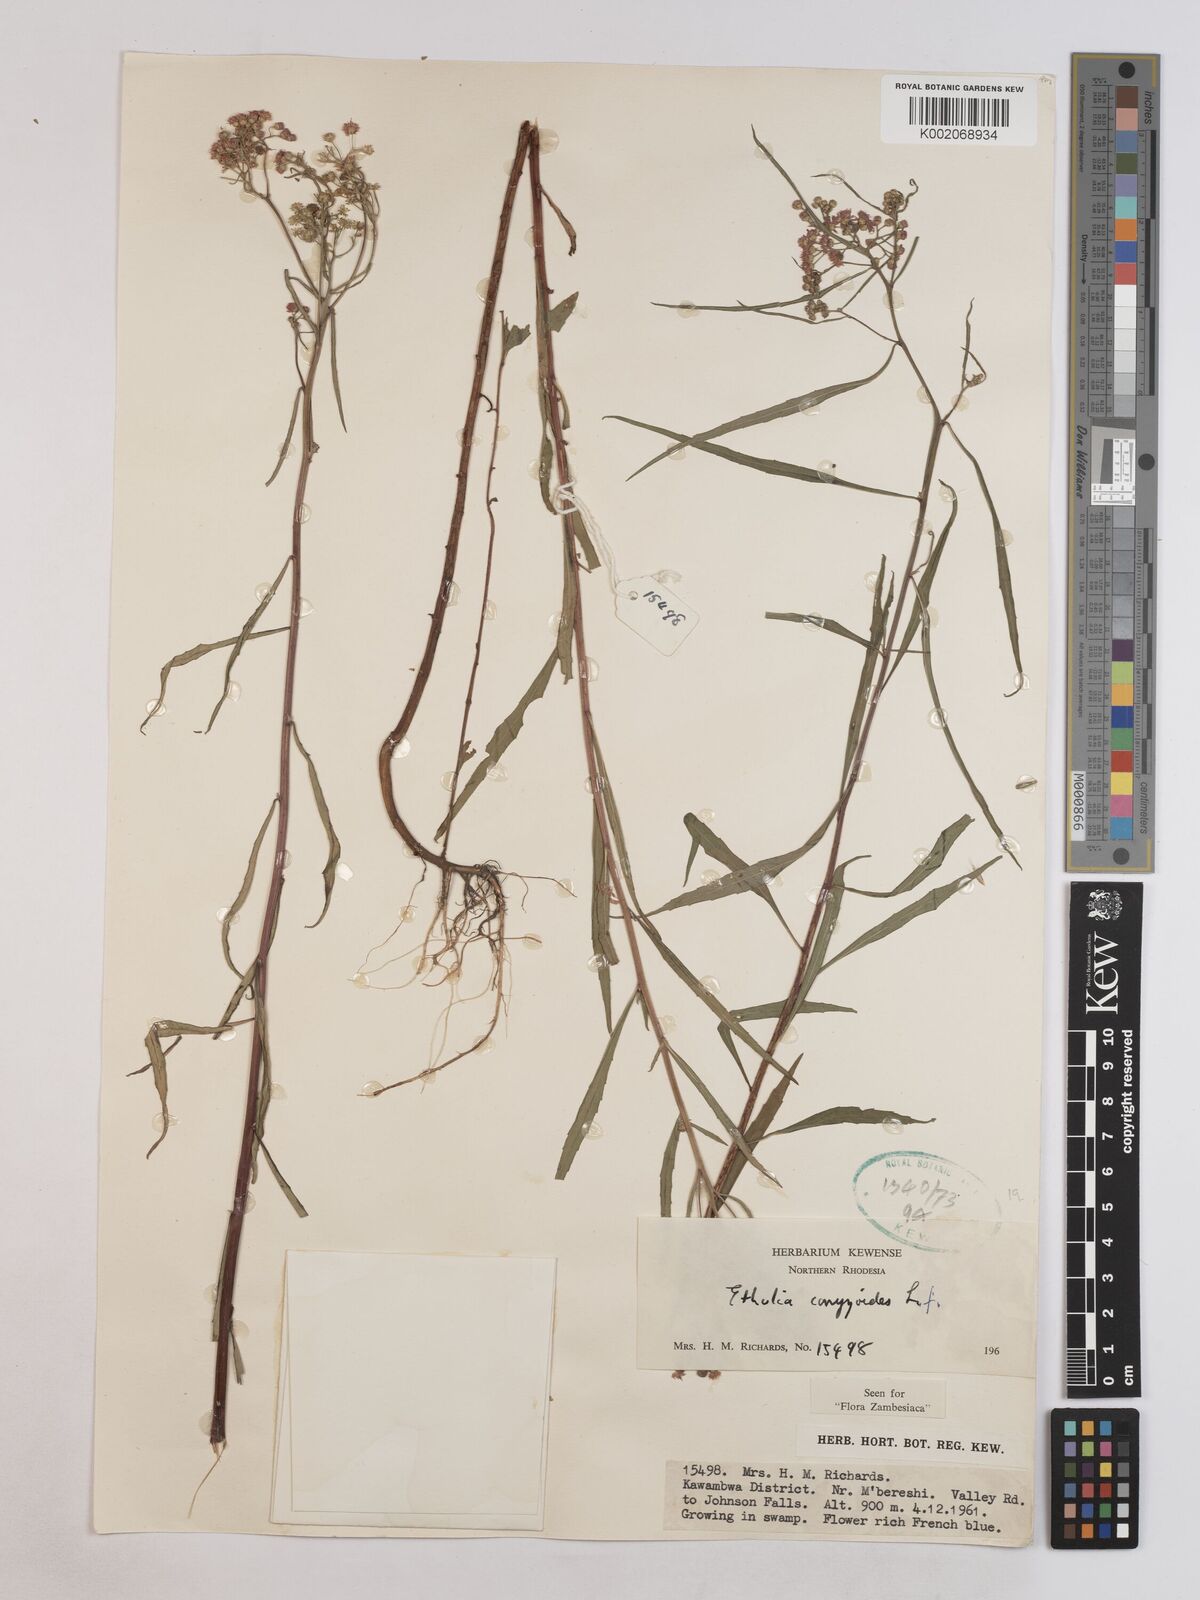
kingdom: Plantae
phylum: Tracheophyta
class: Magnoliopsida
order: Asterales
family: Asteraceae
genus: Ethulia
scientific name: Ethulia conyzoides
